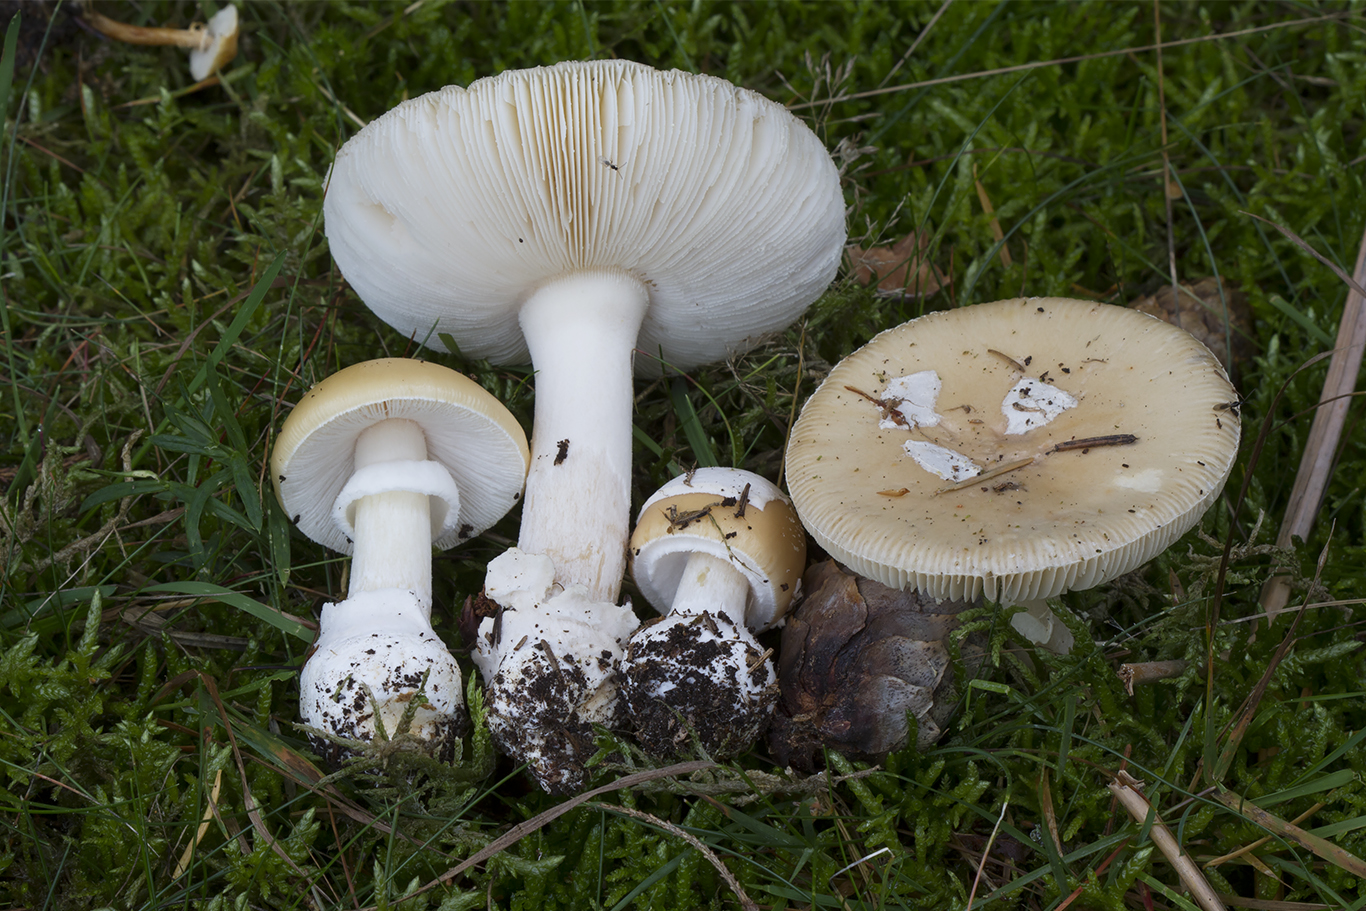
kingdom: Fungi
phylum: Basidiomycota
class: Agaricomycetes
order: Agaricales
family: Amanitaceae
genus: Amanita
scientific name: Amanita gemmata
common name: okkergul fluesvamp
